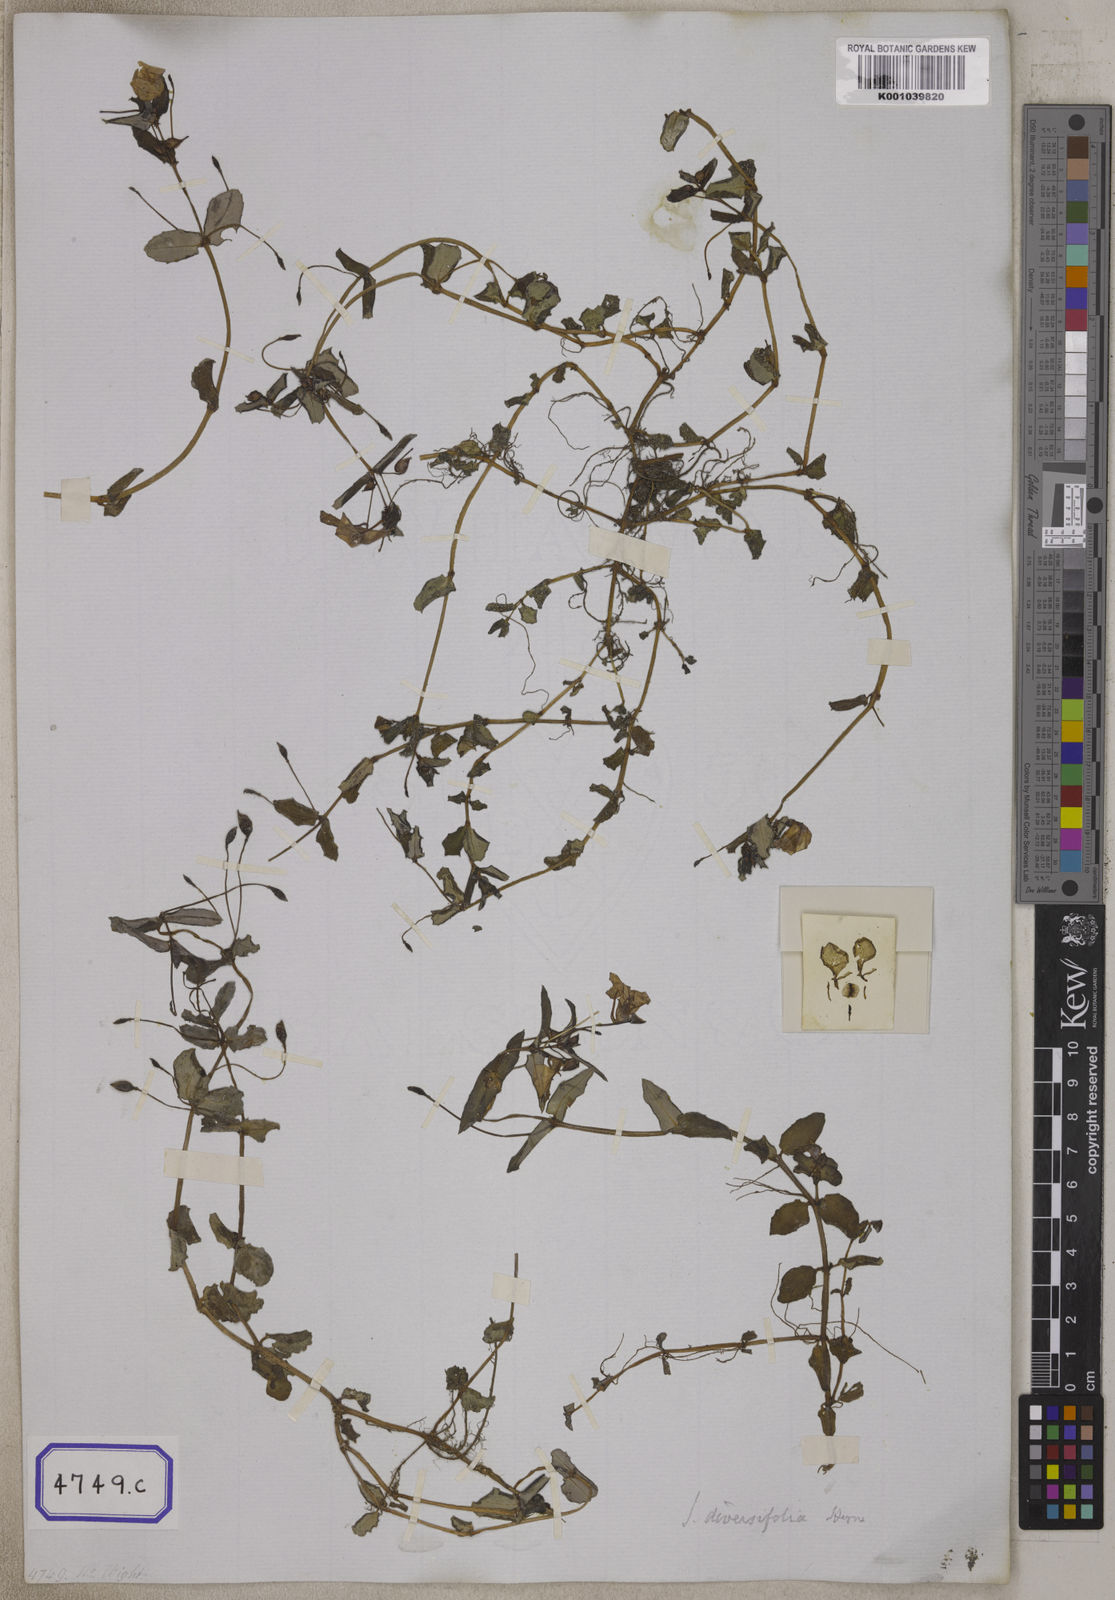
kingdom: Plantae
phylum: Tracheophyta
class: Magnoliopsida
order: Ericales
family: Balsaminaceae
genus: Impatiens
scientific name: Impatiens
